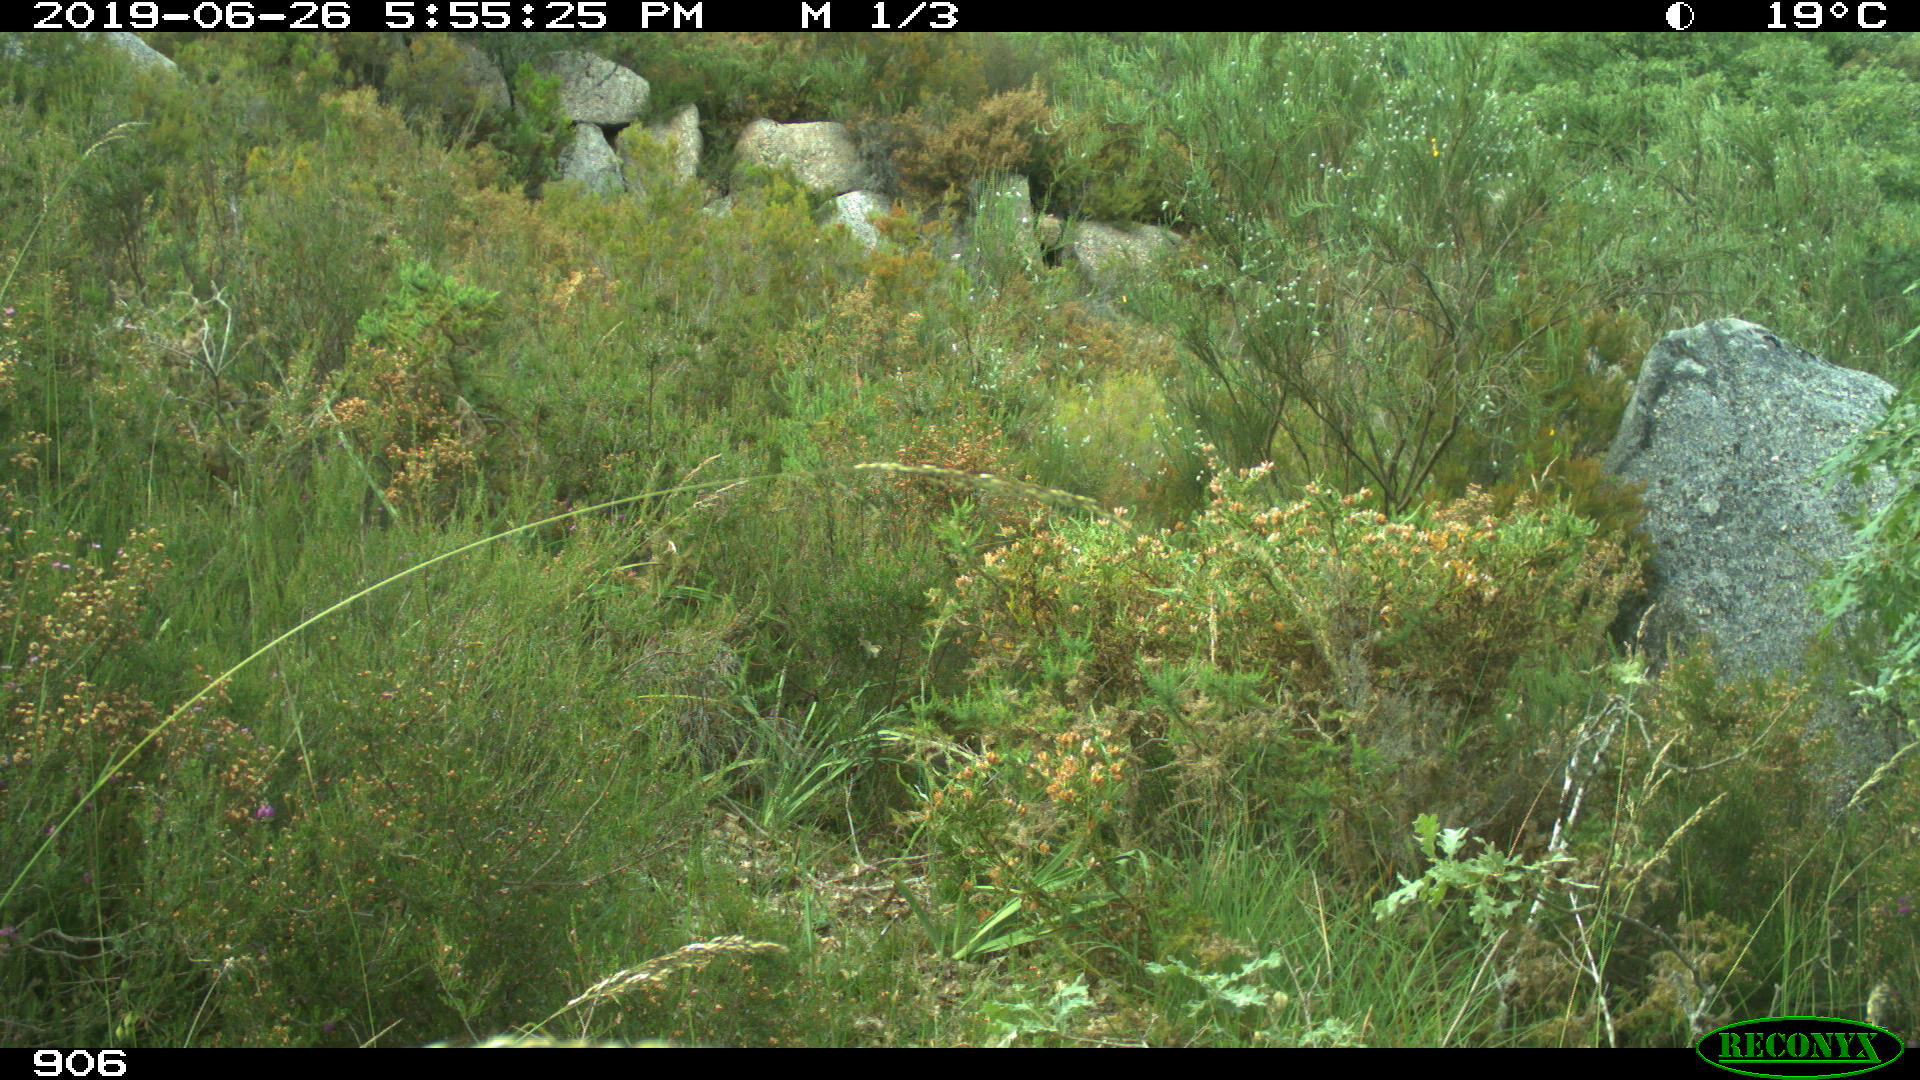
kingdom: Animalia
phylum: Chordata
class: Mammalia
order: Artiodactyla
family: Suidae
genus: Sus
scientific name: Sus scrofa
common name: Wild boar
